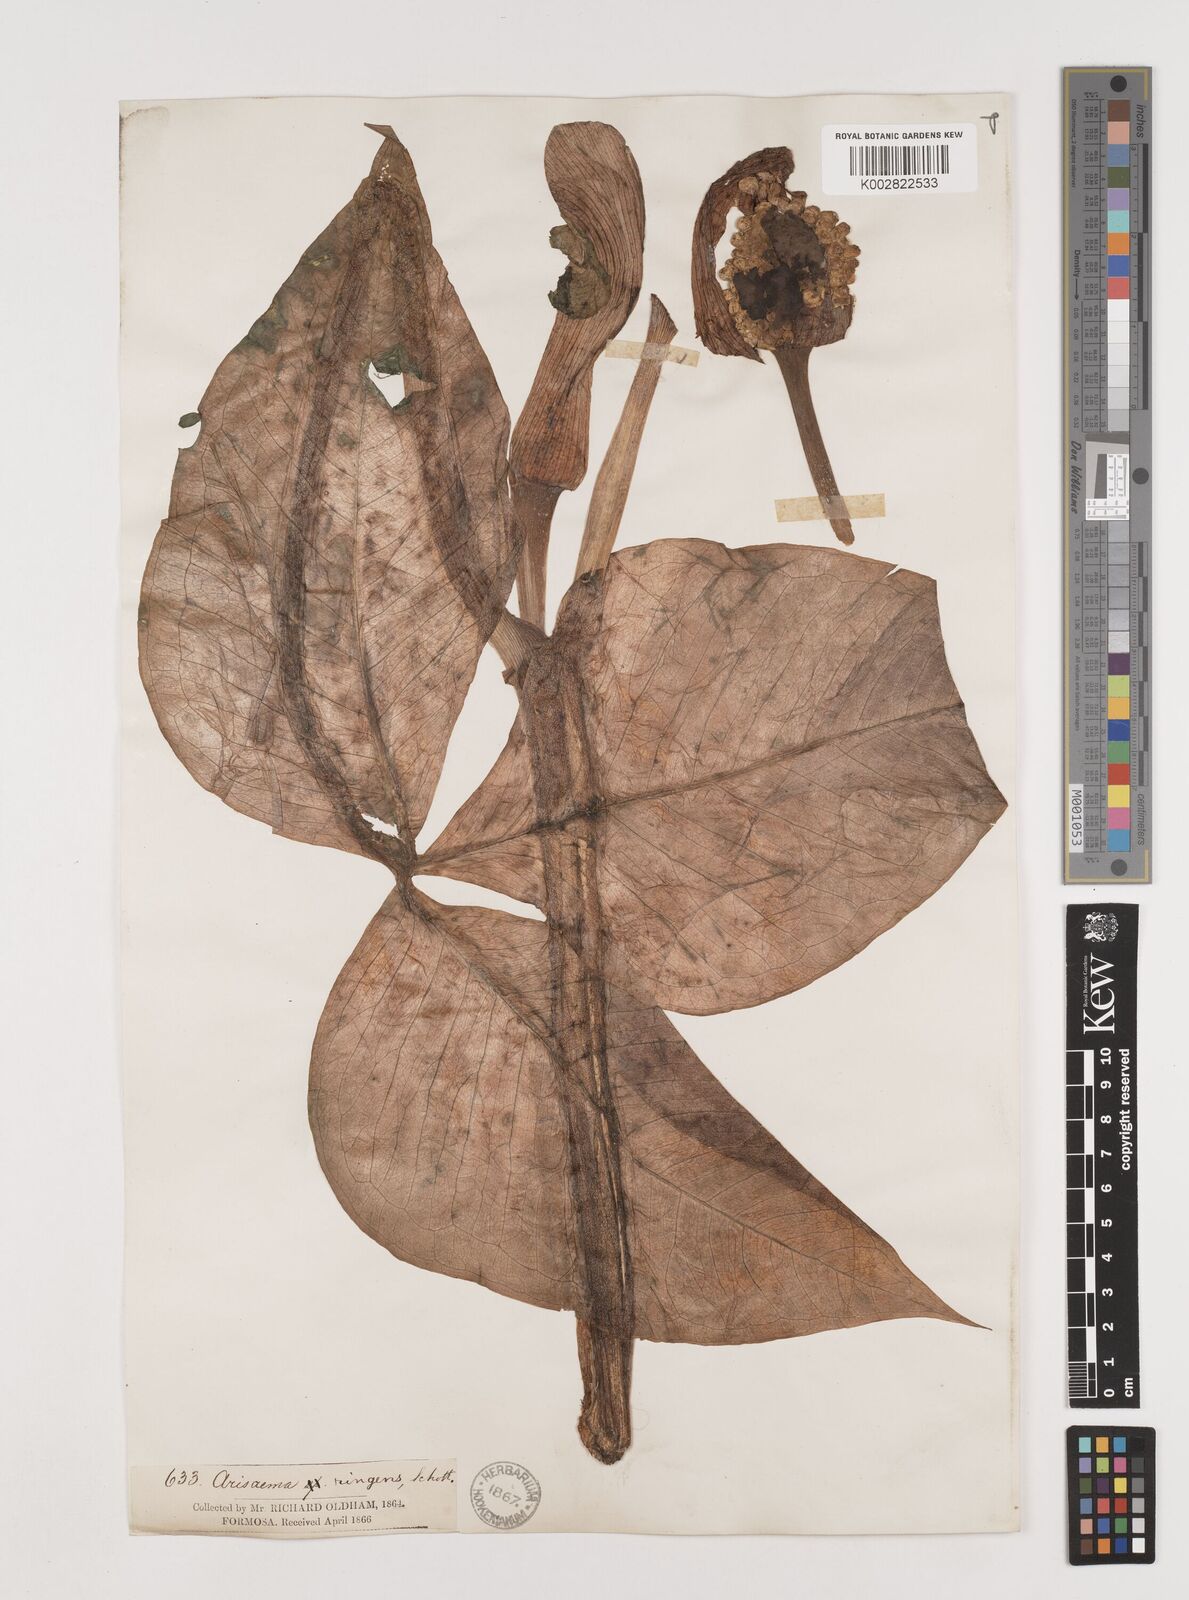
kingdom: Plantae
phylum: Tracheophyta
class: Liliopsida
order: Alismatales
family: Araceae
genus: Arisaema
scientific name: Arisaema ringens
